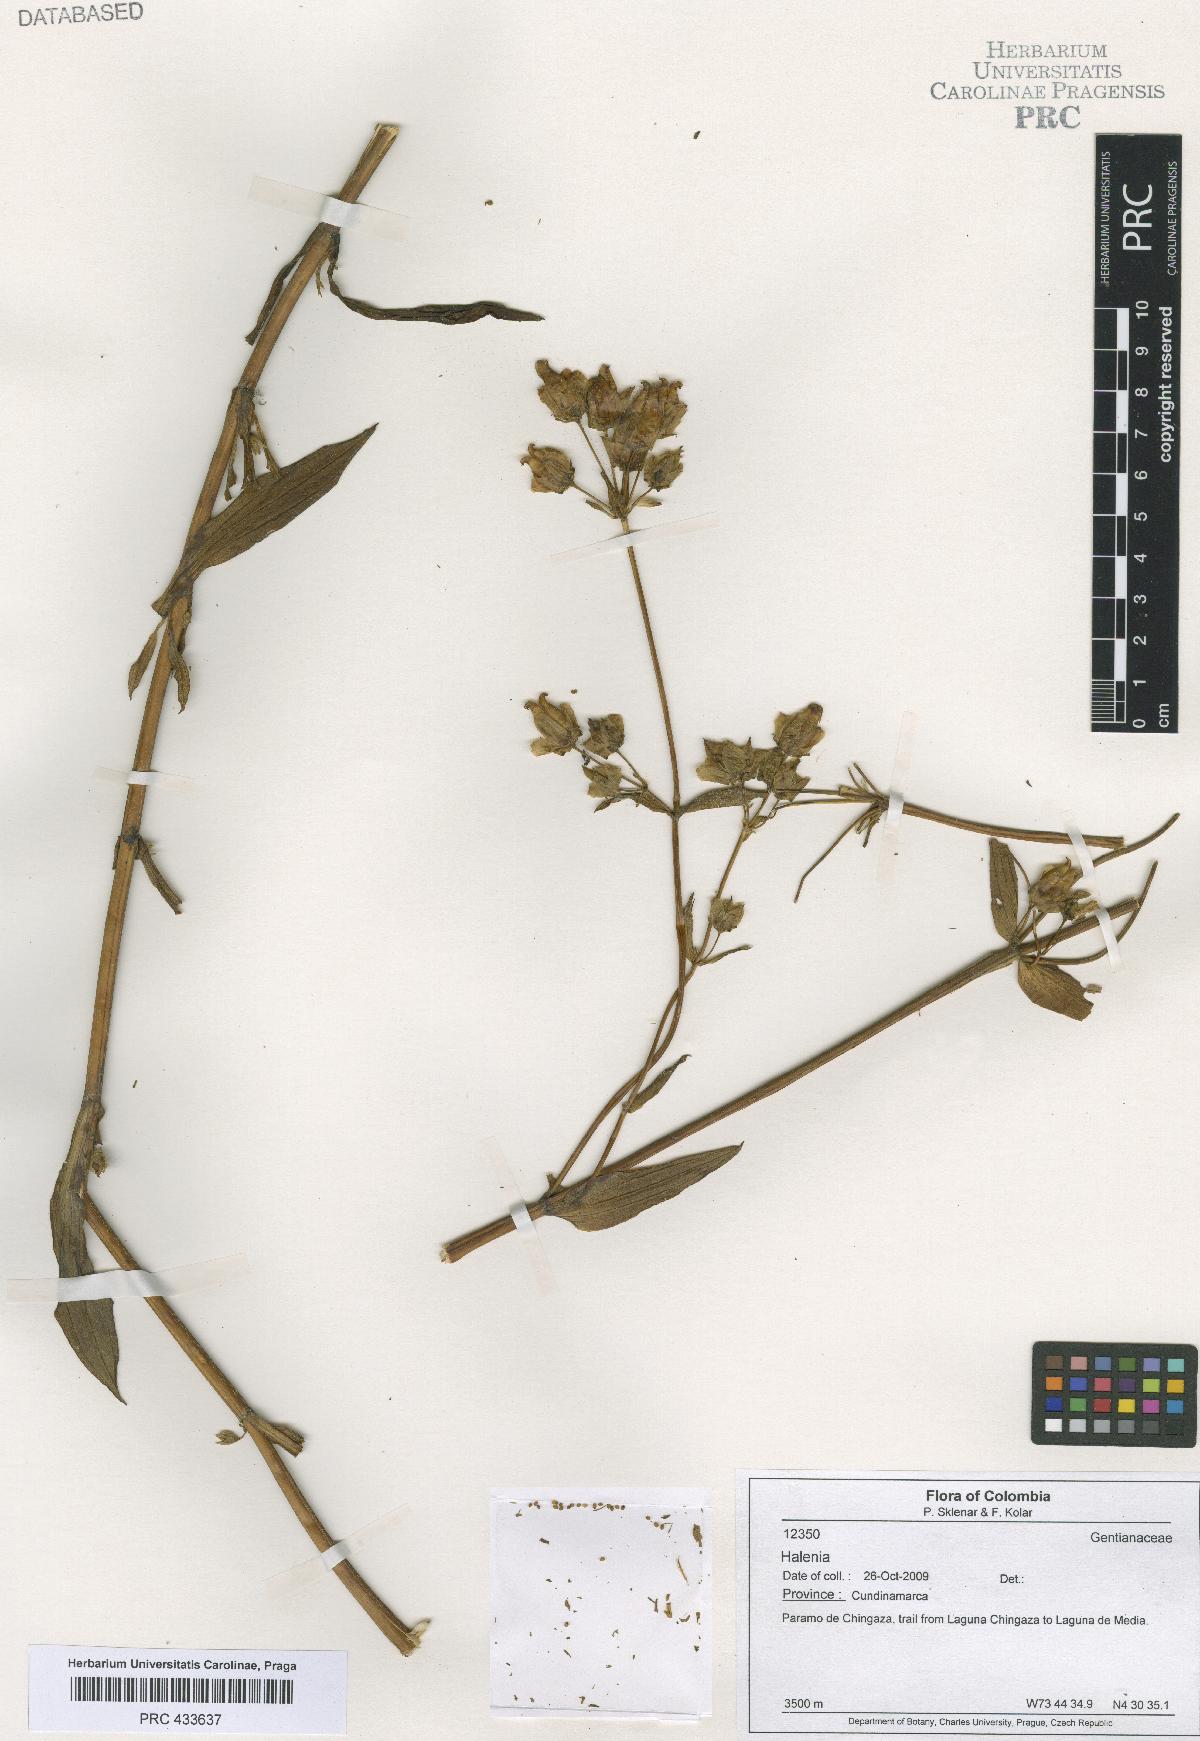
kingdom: Plantae
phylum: Tracheophyta
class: Magnoliopsida
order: Gentianales
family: Gentianaceae
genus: Halenia
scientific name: Halenia
